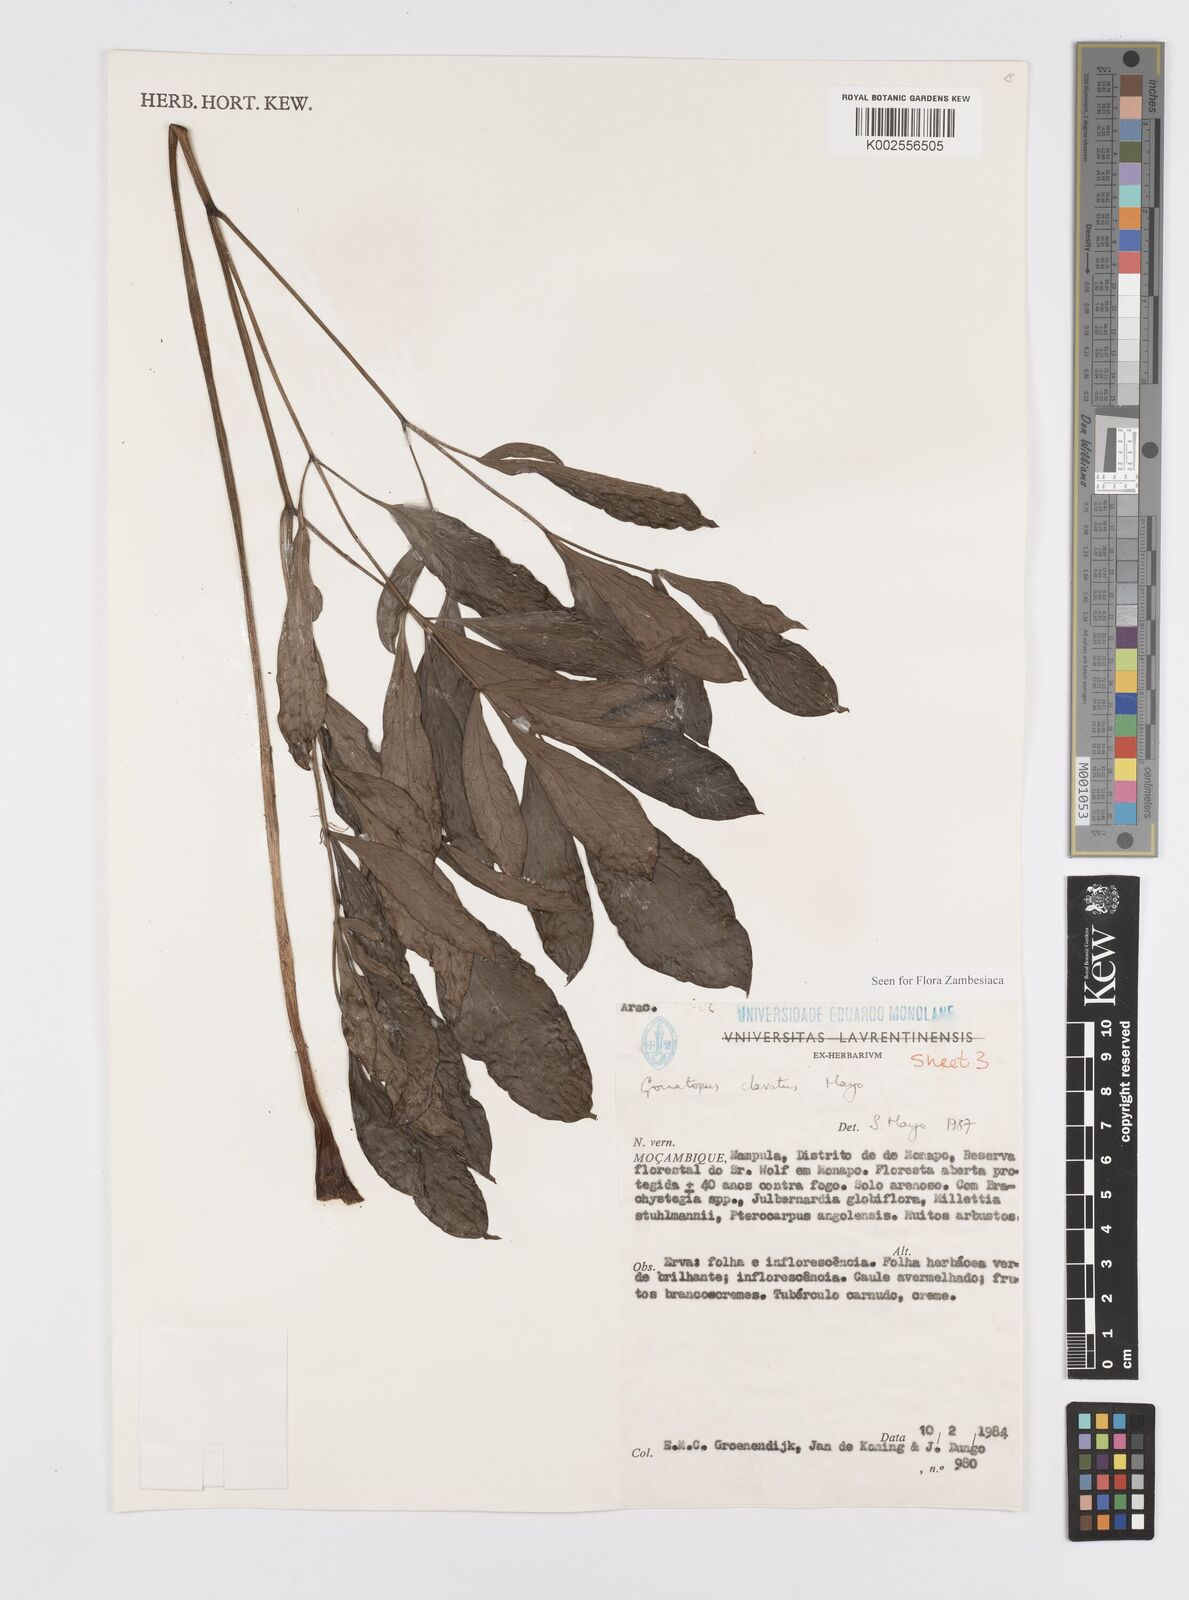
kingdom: Plantae
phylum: Tracheophyta
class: Liliopsida
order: Alismatales
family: Araceae
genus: Gonatopus
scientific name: Gonatopus clavatus
